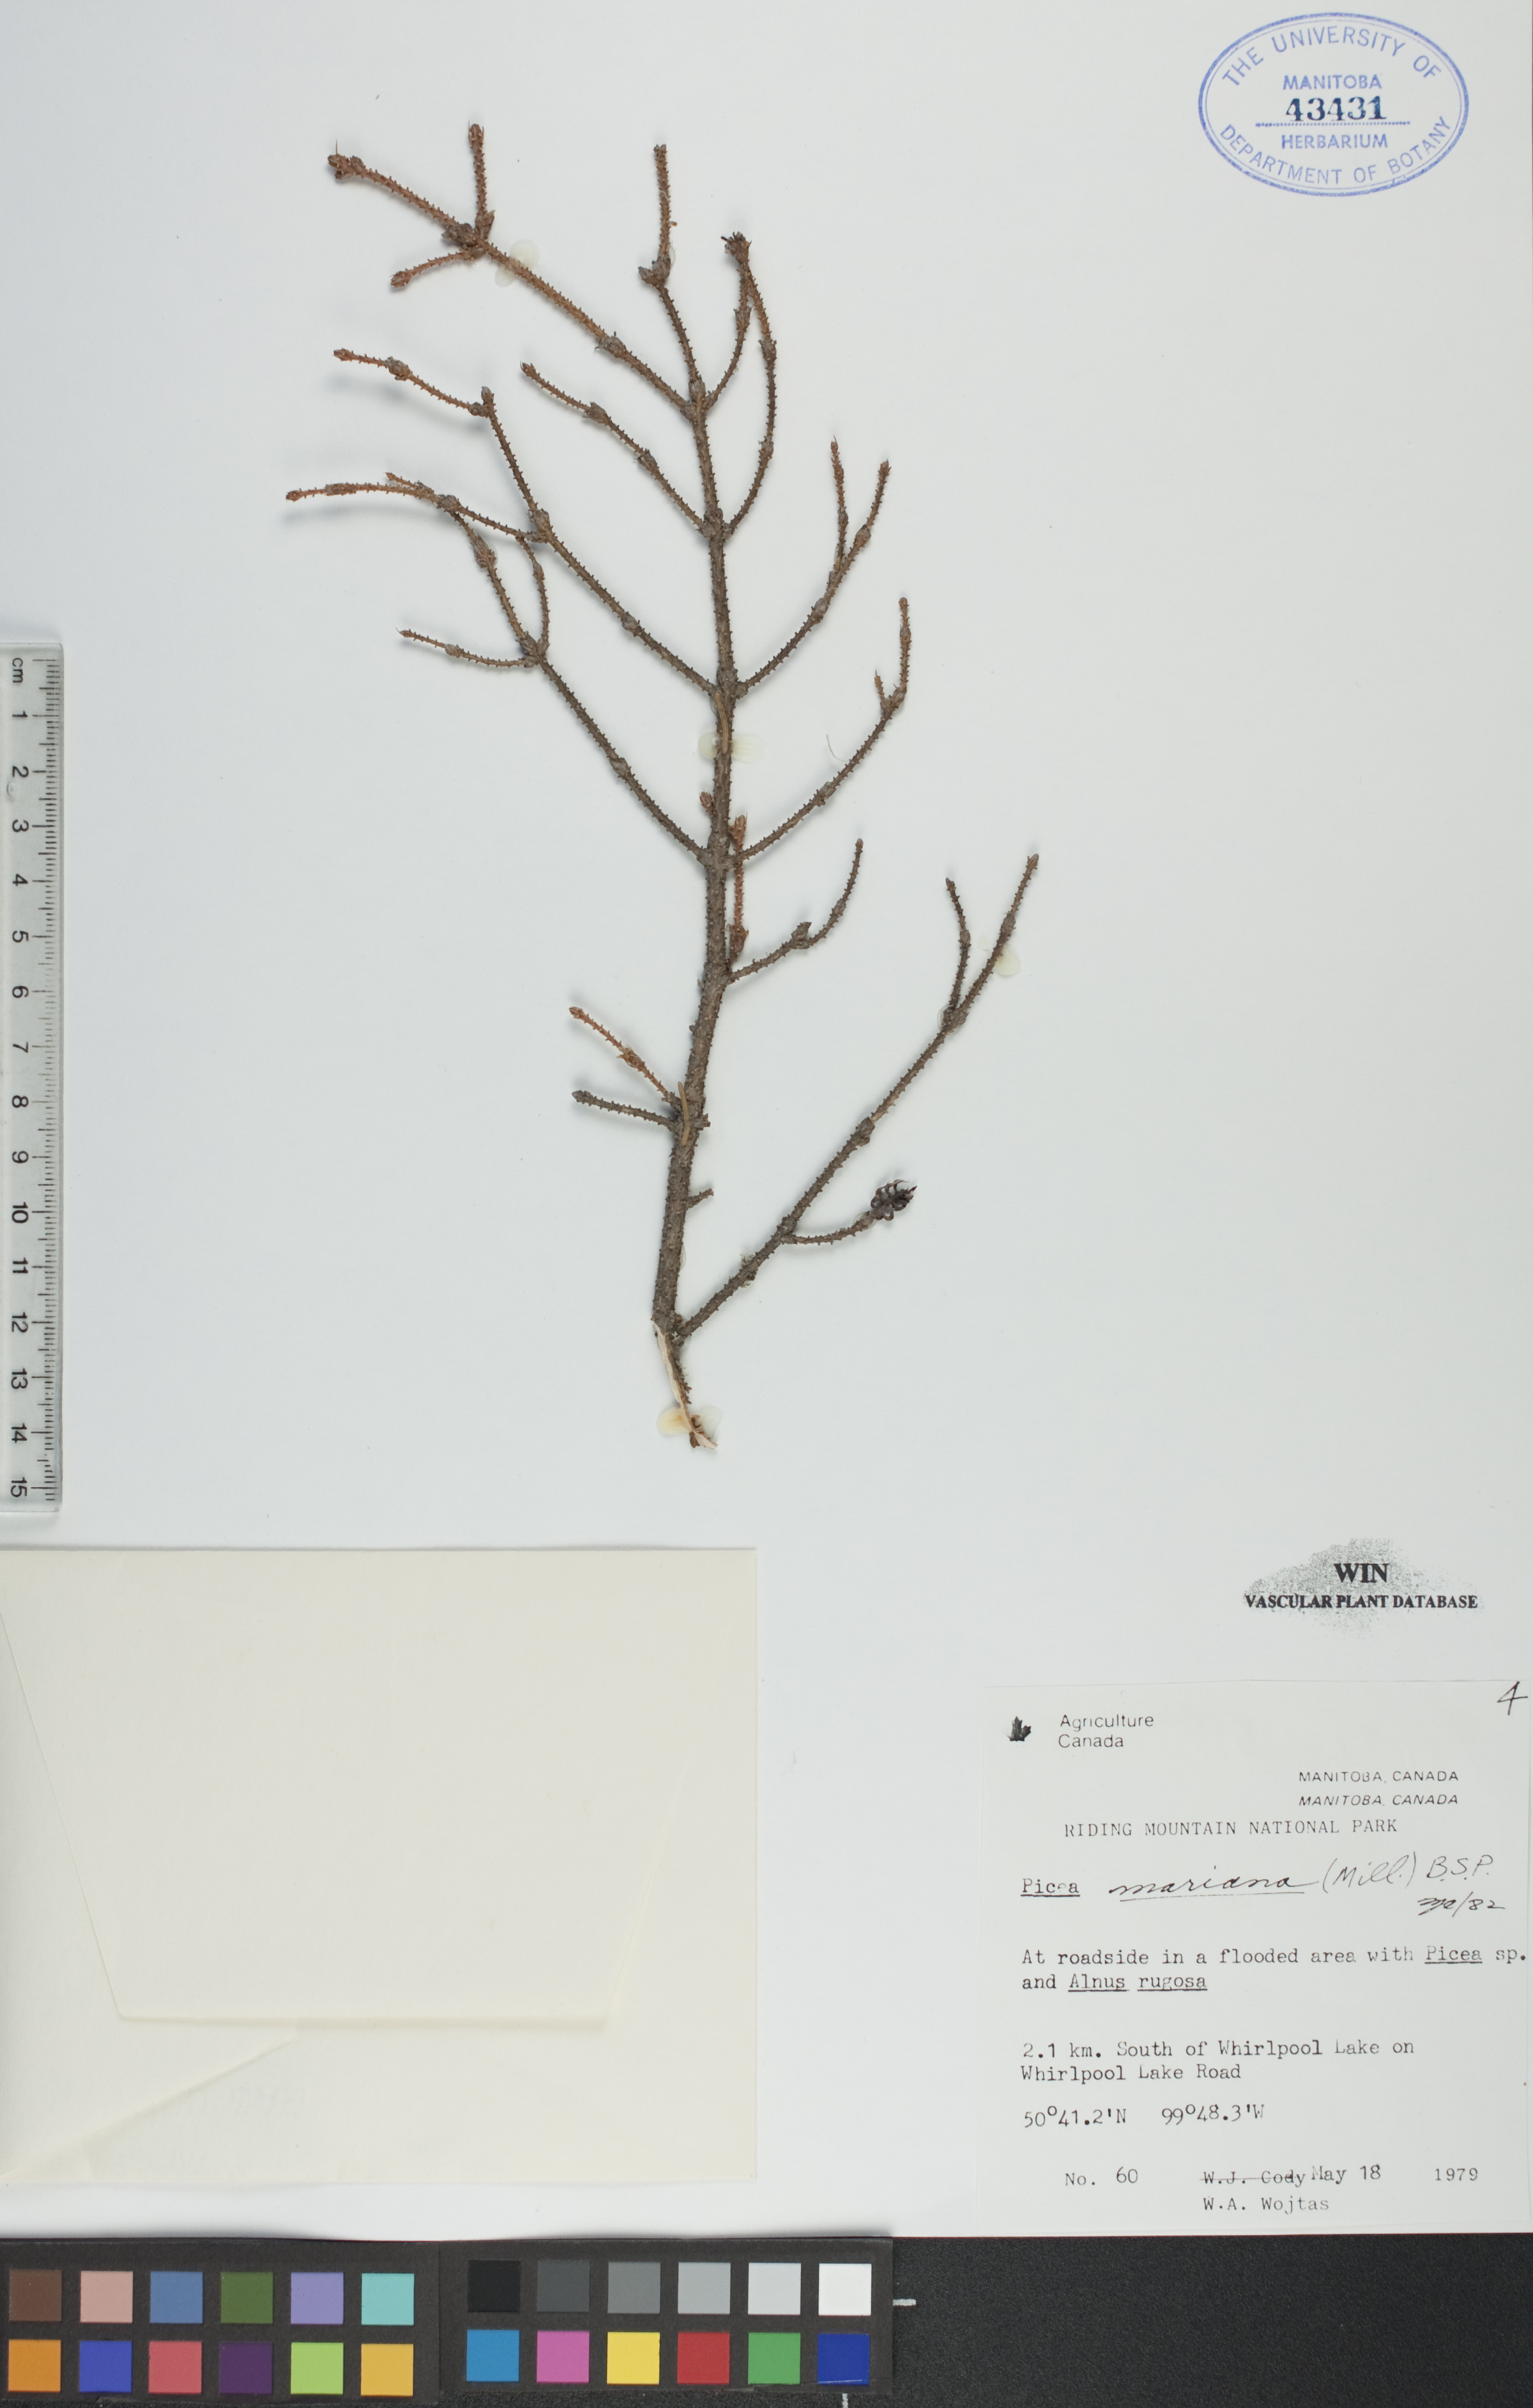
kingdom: Plantae
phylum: Tracheophyta
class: Pinopsida
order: Pinales
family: Pinaceae
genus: Picea
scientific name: Picea mariana
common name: Black spruce
